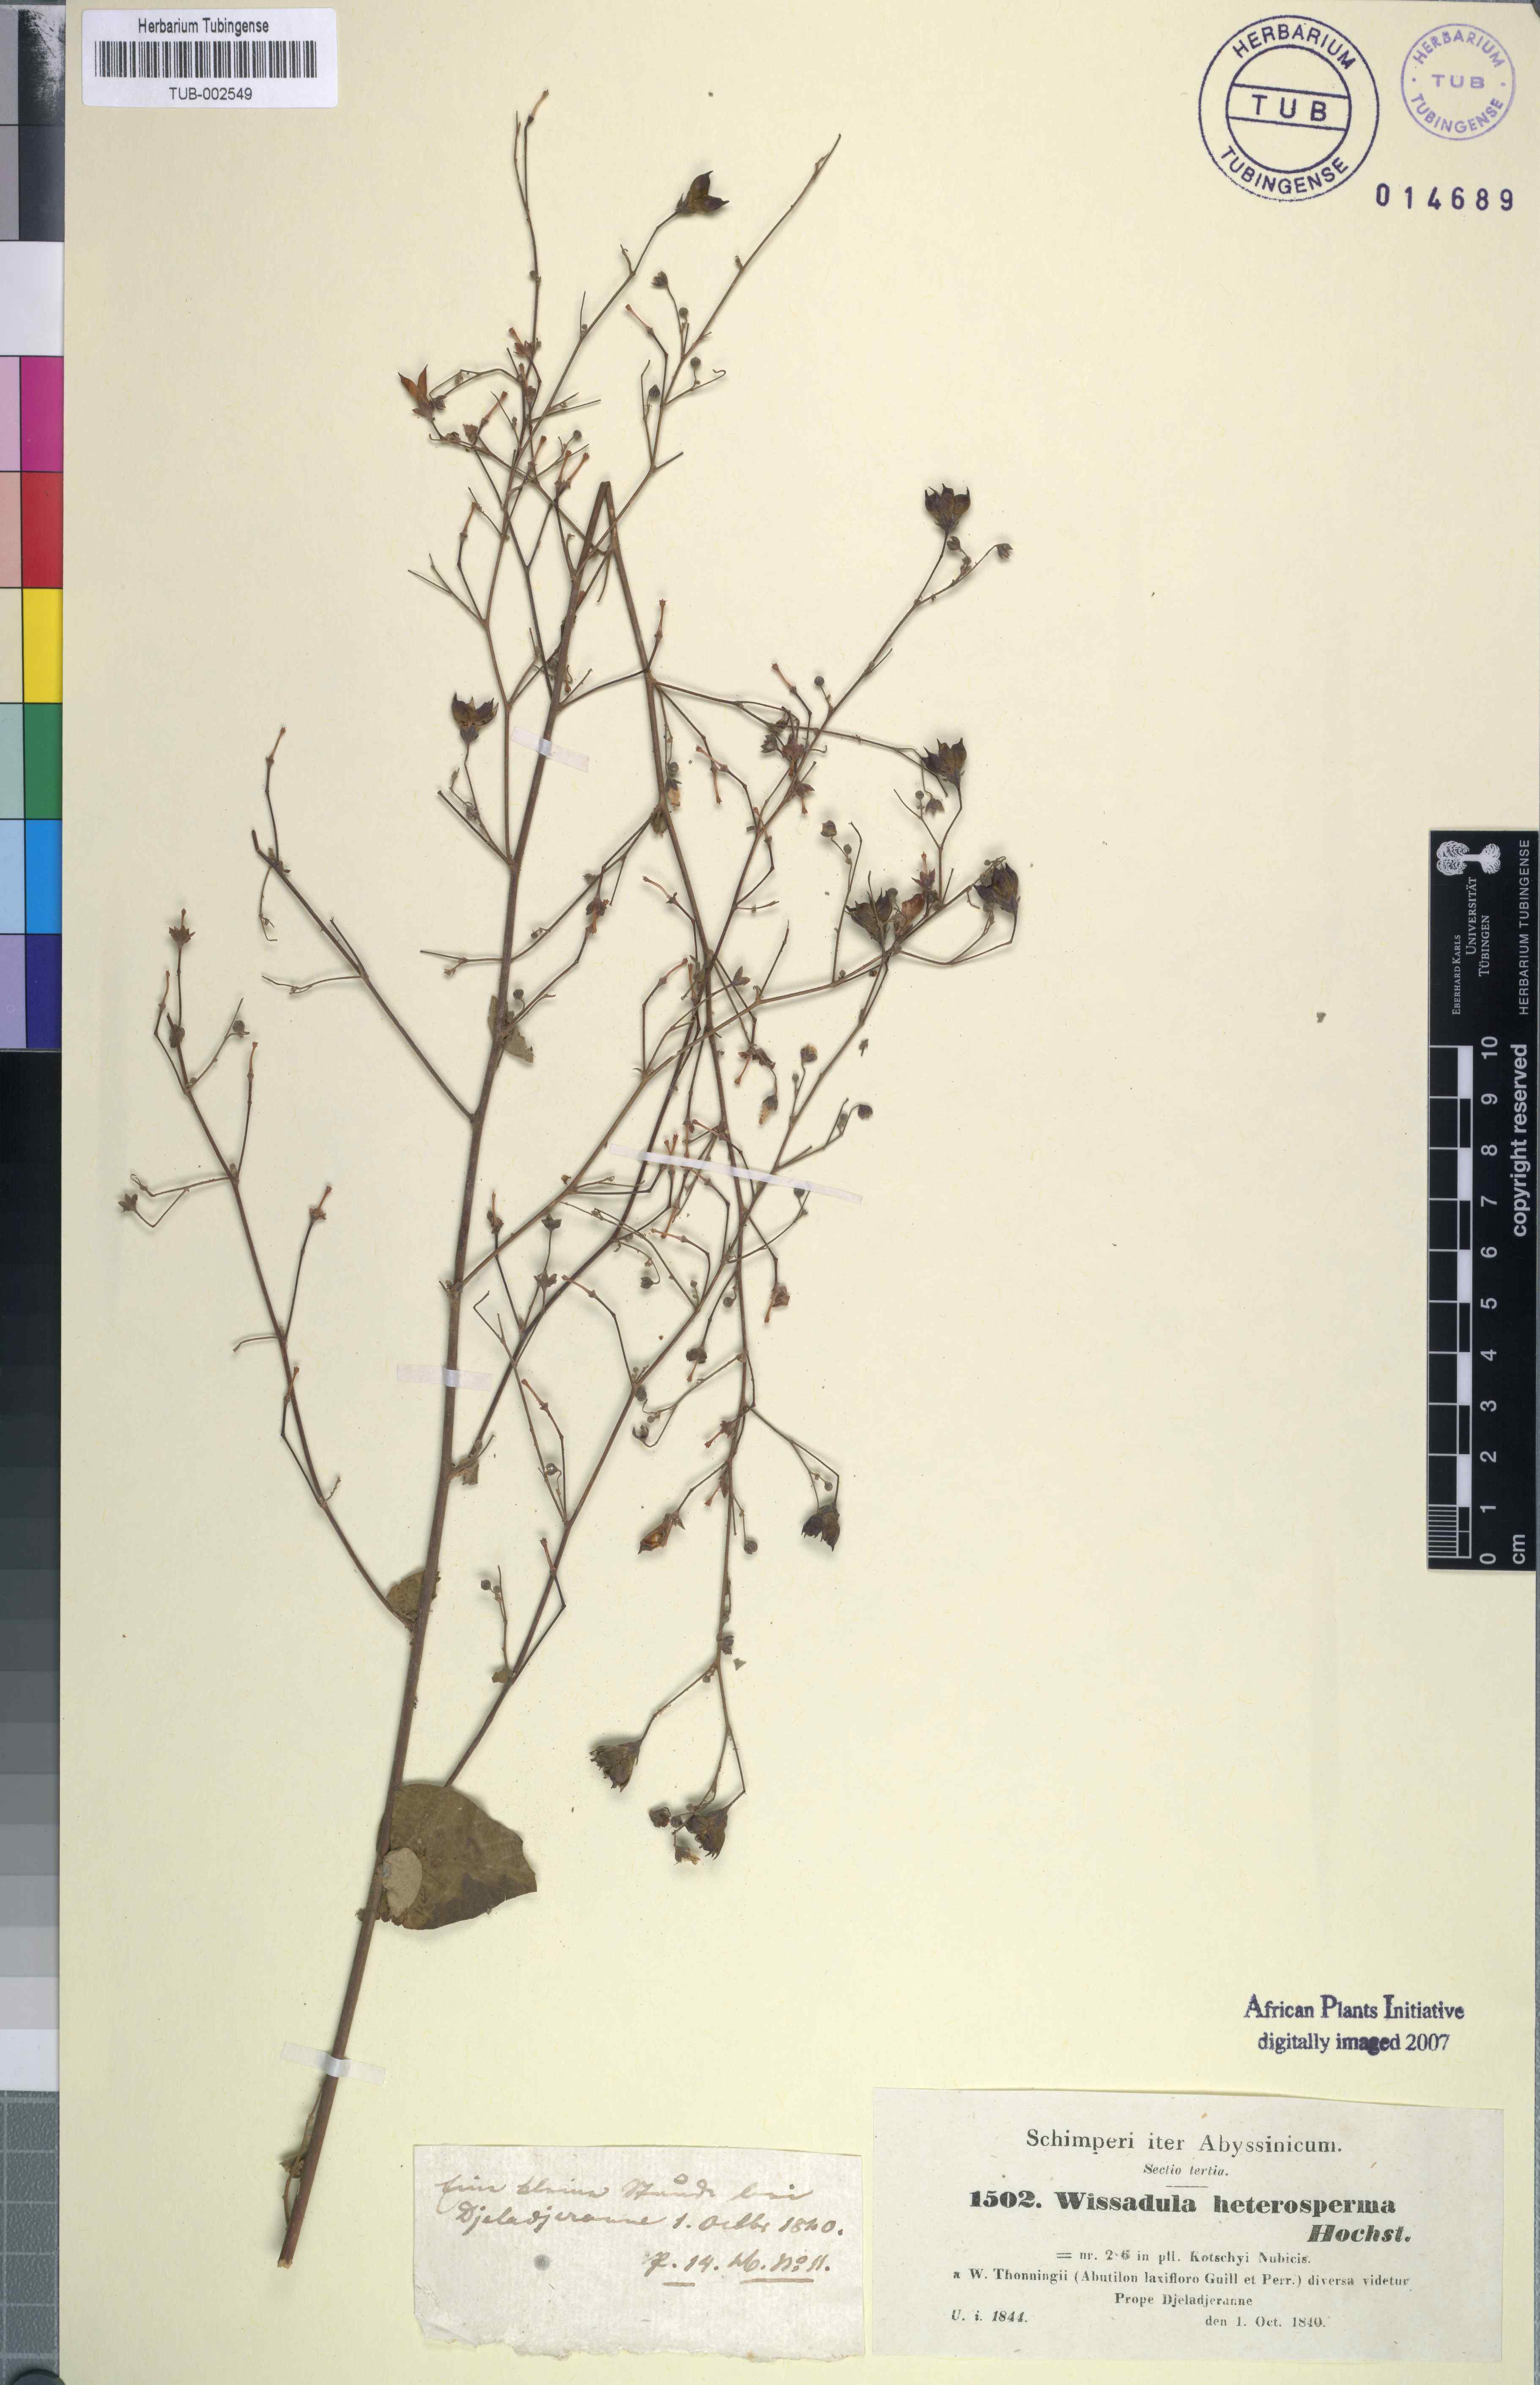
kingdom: Plantae
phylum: Tracheophyta
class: Magnoliopsida
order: Malvales
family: Malvaceae
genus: Wissadula
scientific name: Wissadula periplocifolia
